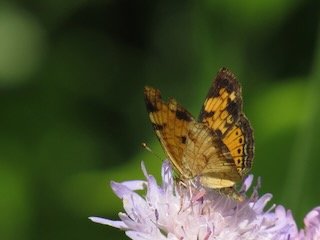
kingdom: Animalia
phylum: Arthropoda
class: Insecta
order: Lepidoptera
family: Nymphalidae
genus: Phyciodes
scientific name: Phyciodes
